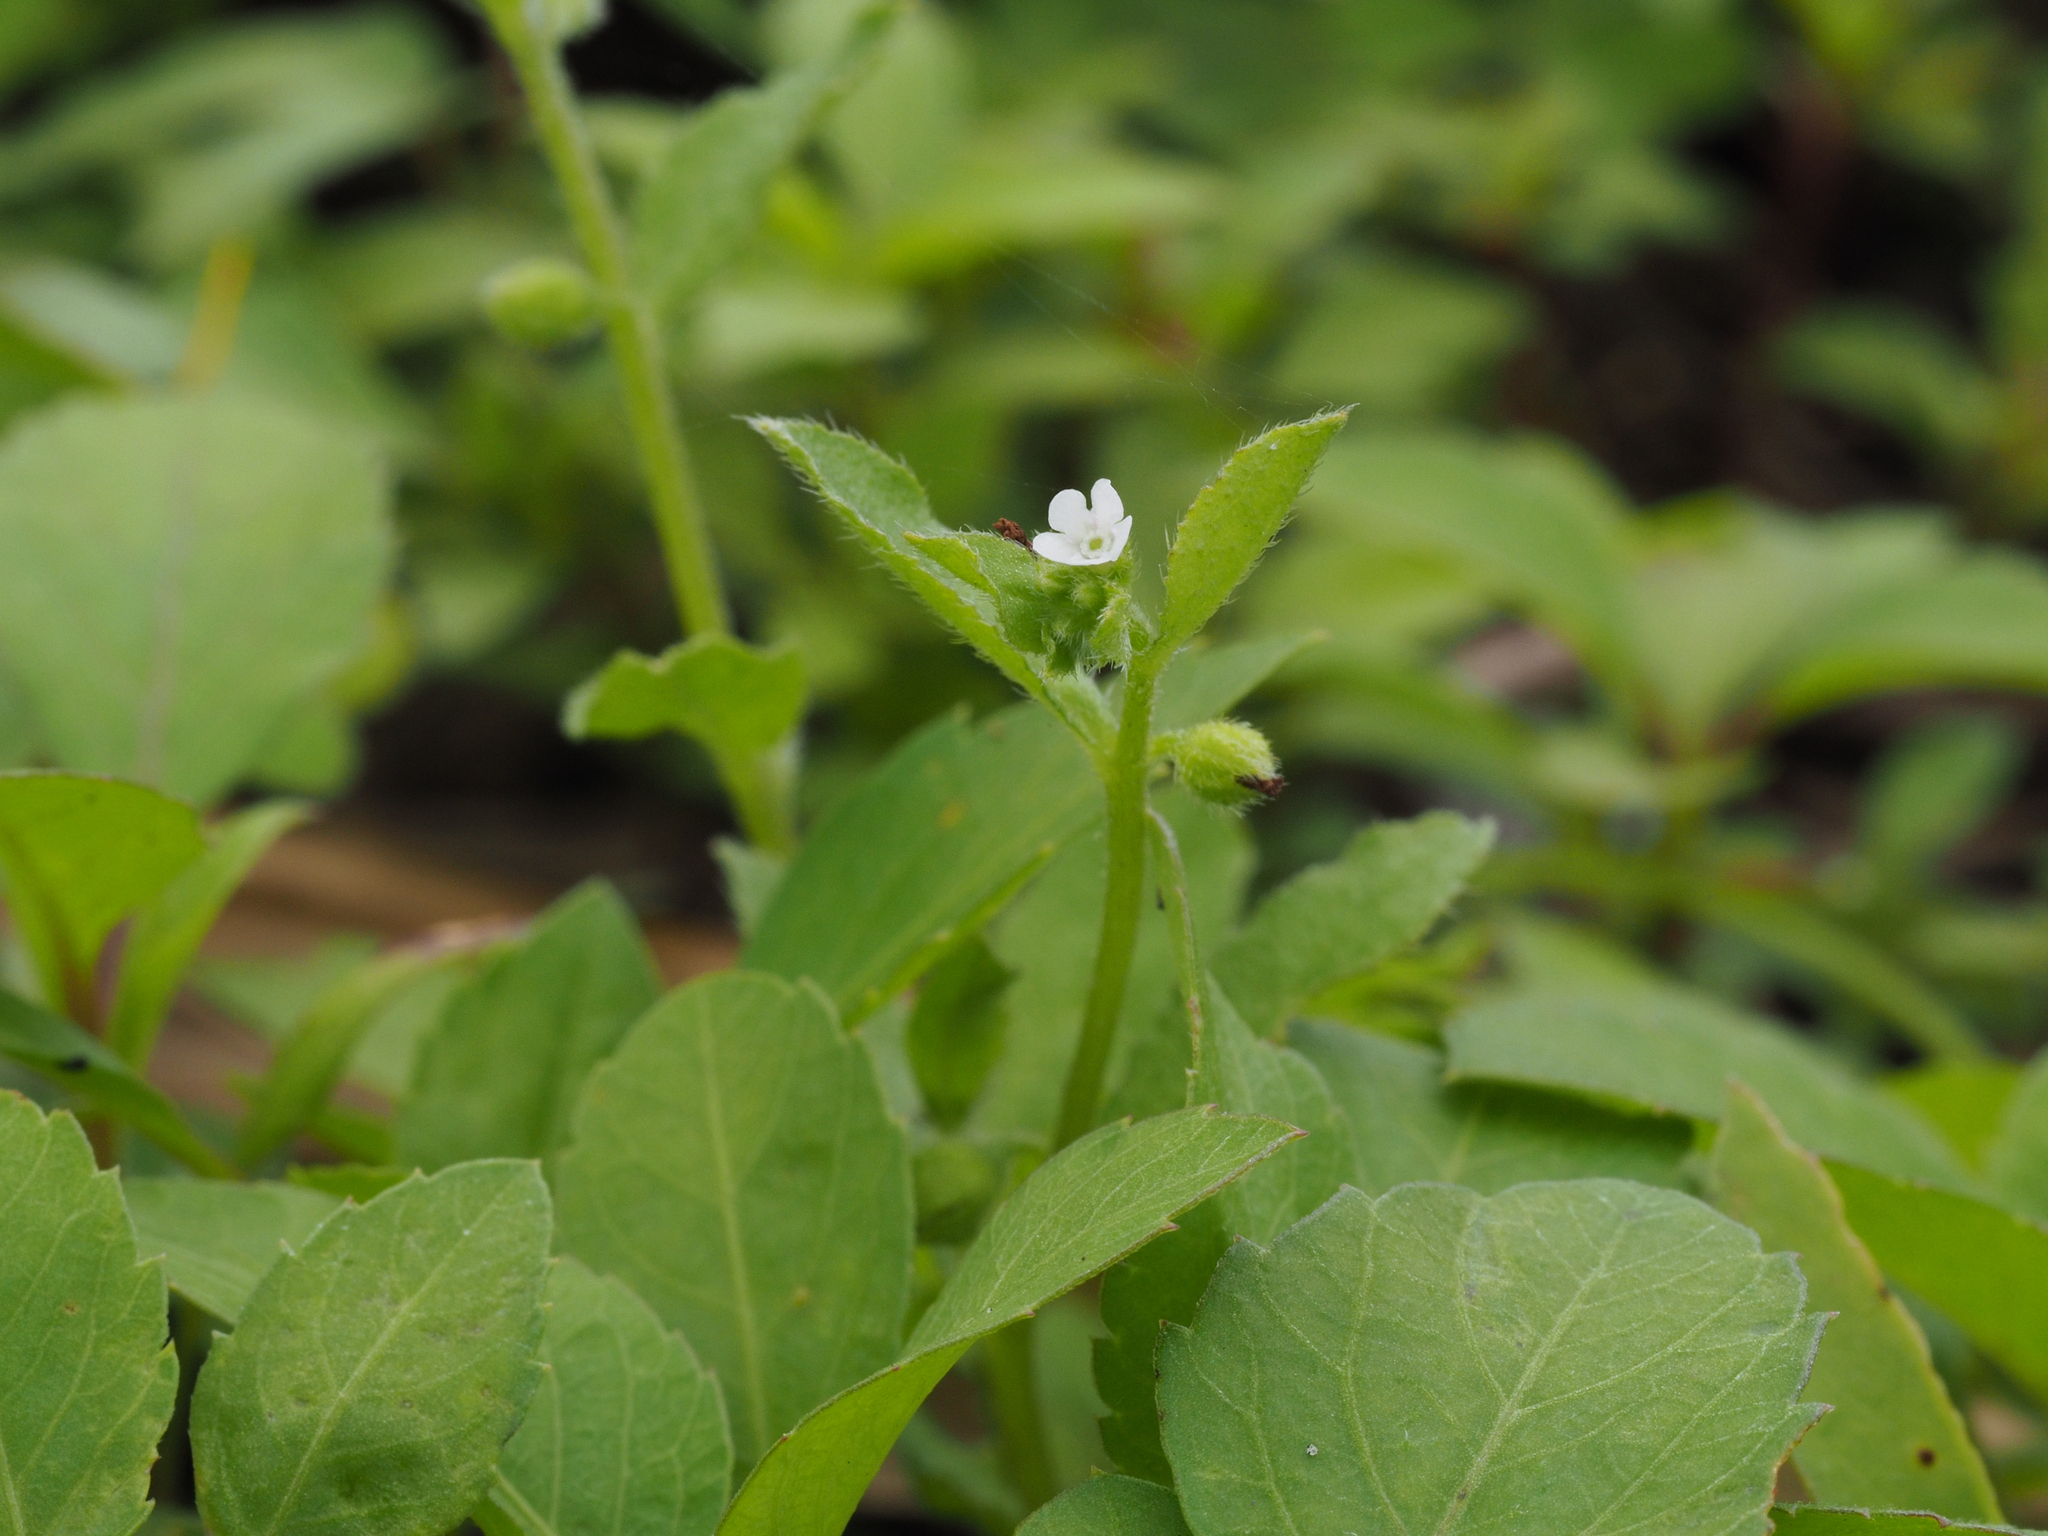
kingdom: Plantae
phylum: Tracheophyta
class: Magnoliopsida
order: Boraginales
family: Boraginaceae
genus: Bothriospermum
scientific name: Bothriospermum zeylanicum
